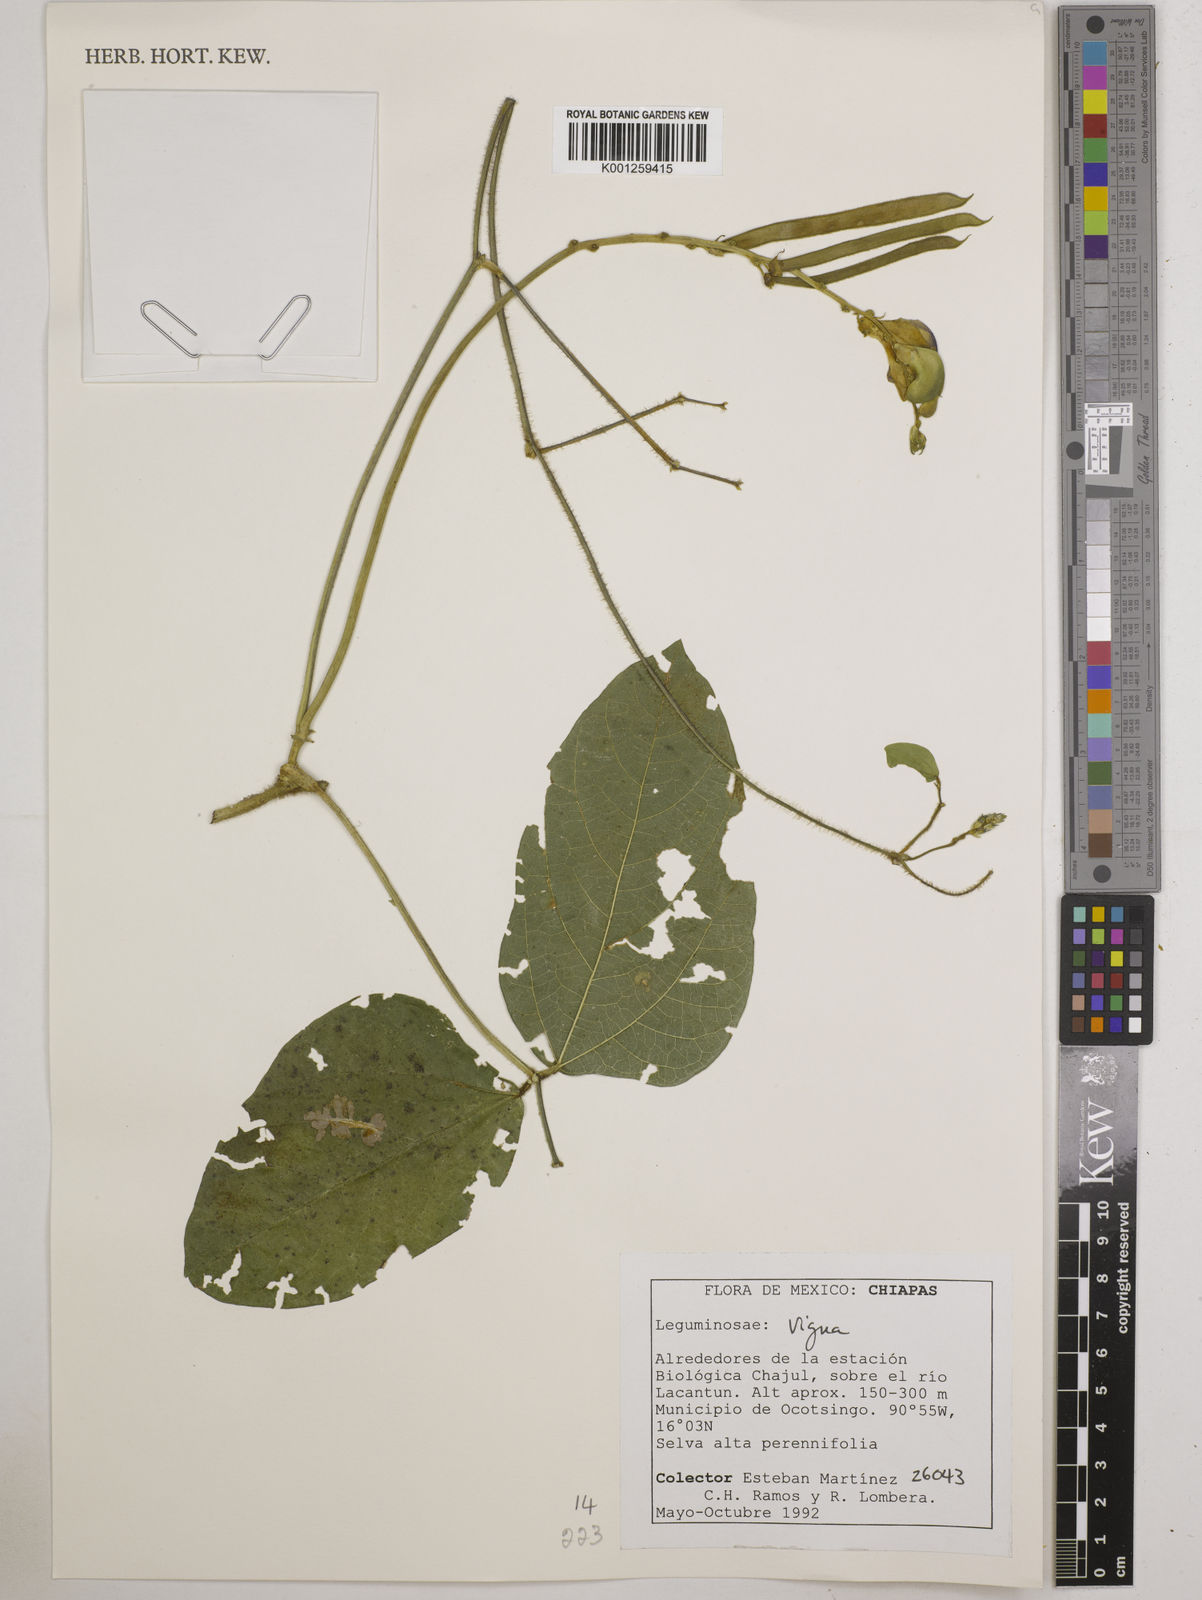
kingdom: Plantae
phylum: Tracheophyta
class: Magnoliopsida
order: Fabales
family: Fabaceae
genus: Vigna
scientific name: Vigna
